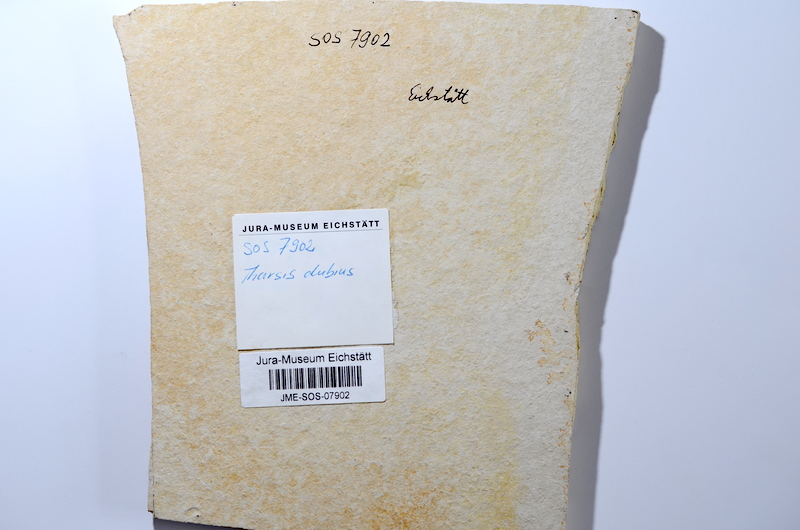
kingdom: Animalia
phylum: Chordata
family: Ascalaboidae
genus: Tharsis
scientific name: Tharsis dubius
